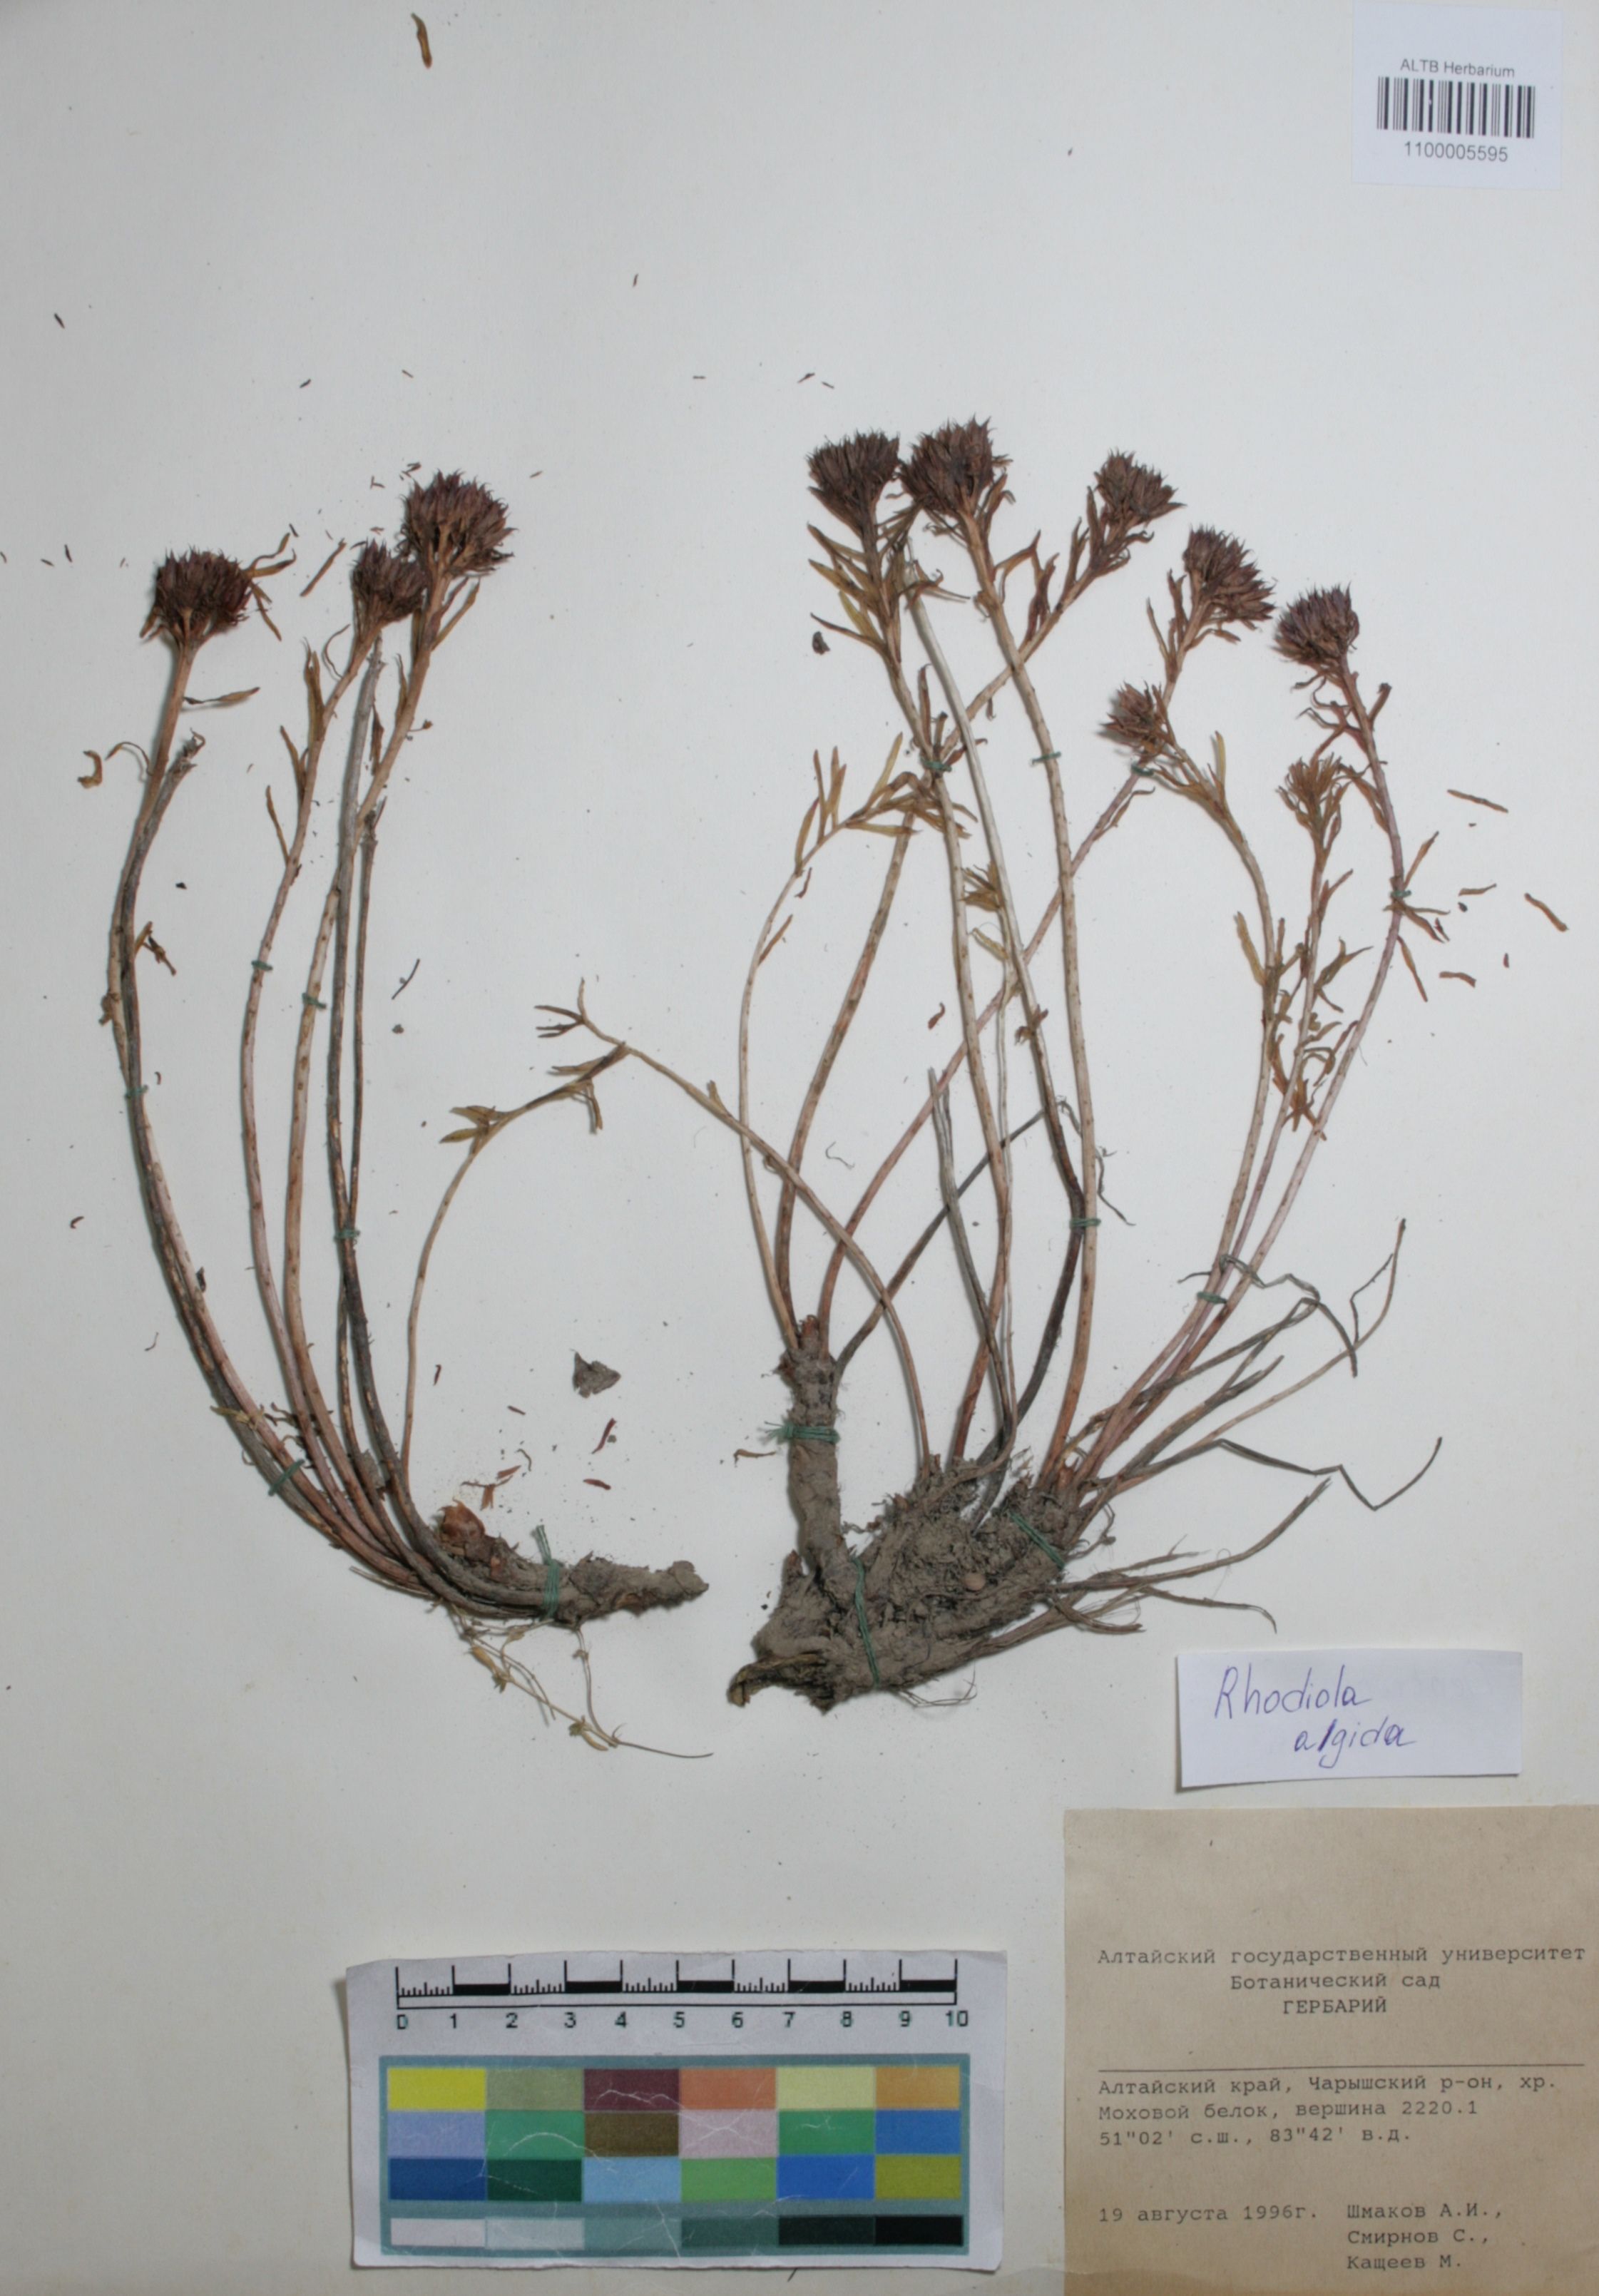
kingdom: Plantae
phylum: Tracheophyta
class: Magnoliopsida
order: Saxifragales
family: Crassulaceae
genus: Rhodiola
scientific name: Rhodiola algida
